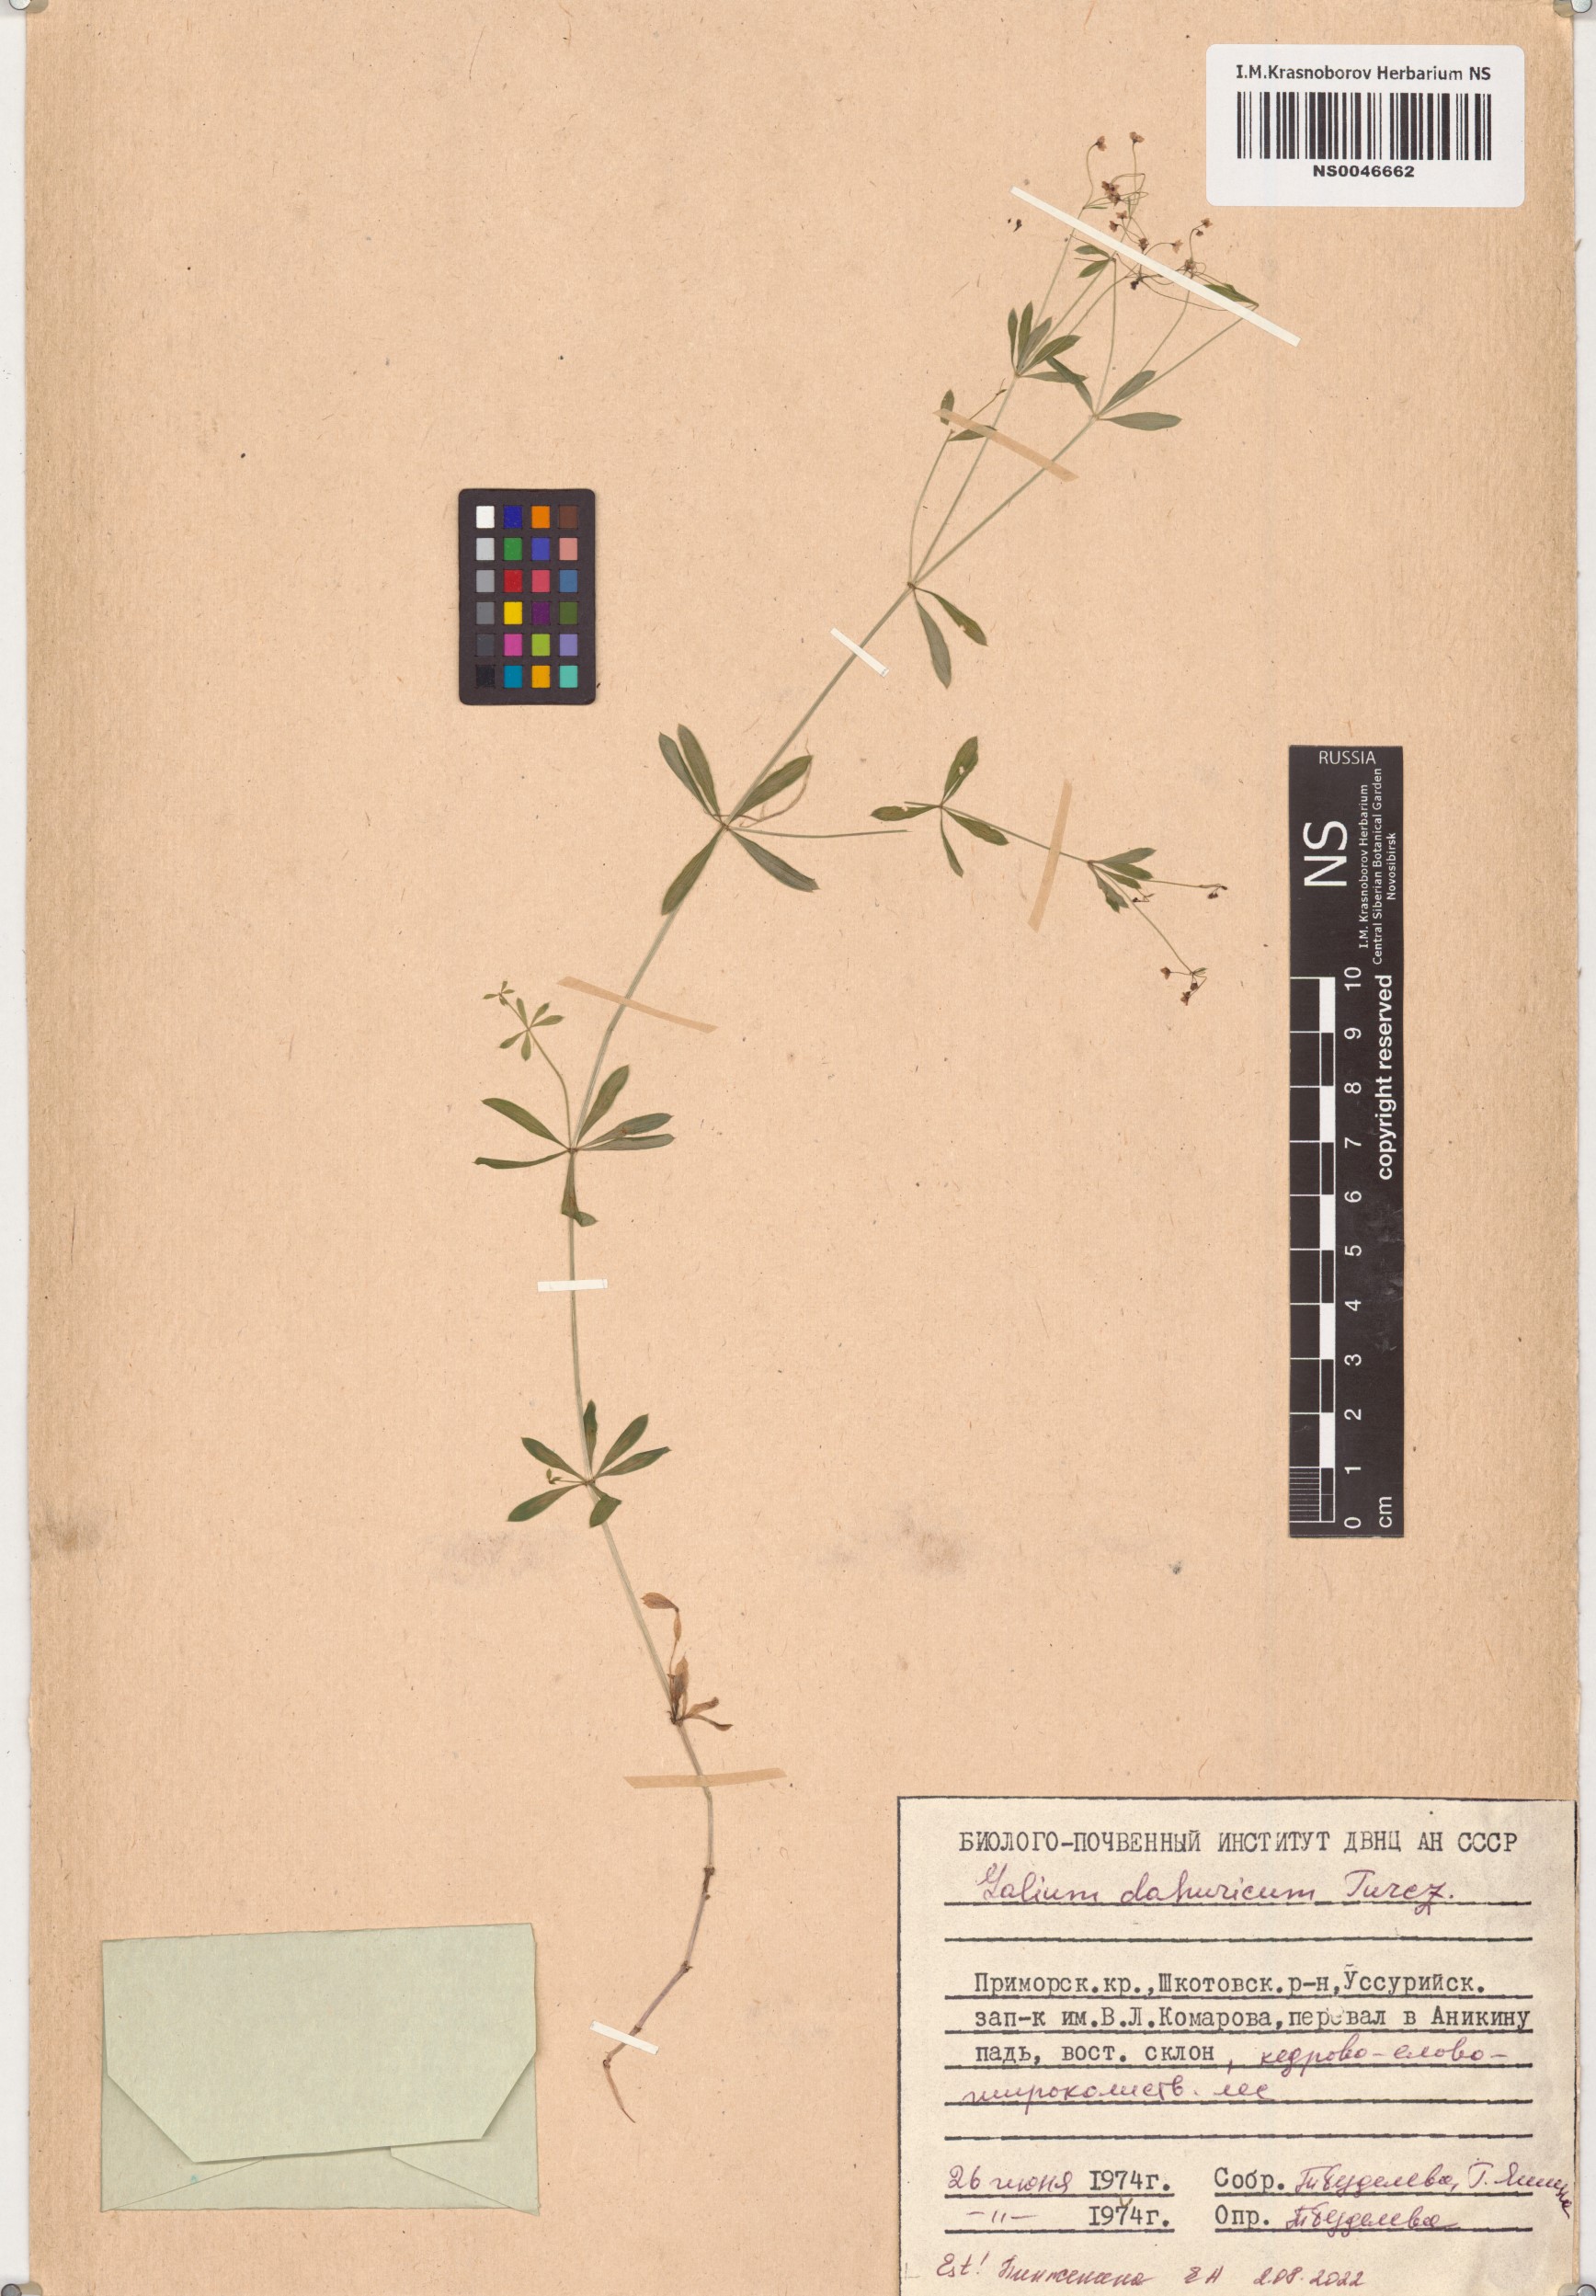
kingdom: Plantae
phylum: Tracheophyta
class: Magnoliopsida
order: Gentianales
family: Rubiaceae
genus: Galium
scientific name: Galium dahuricum
